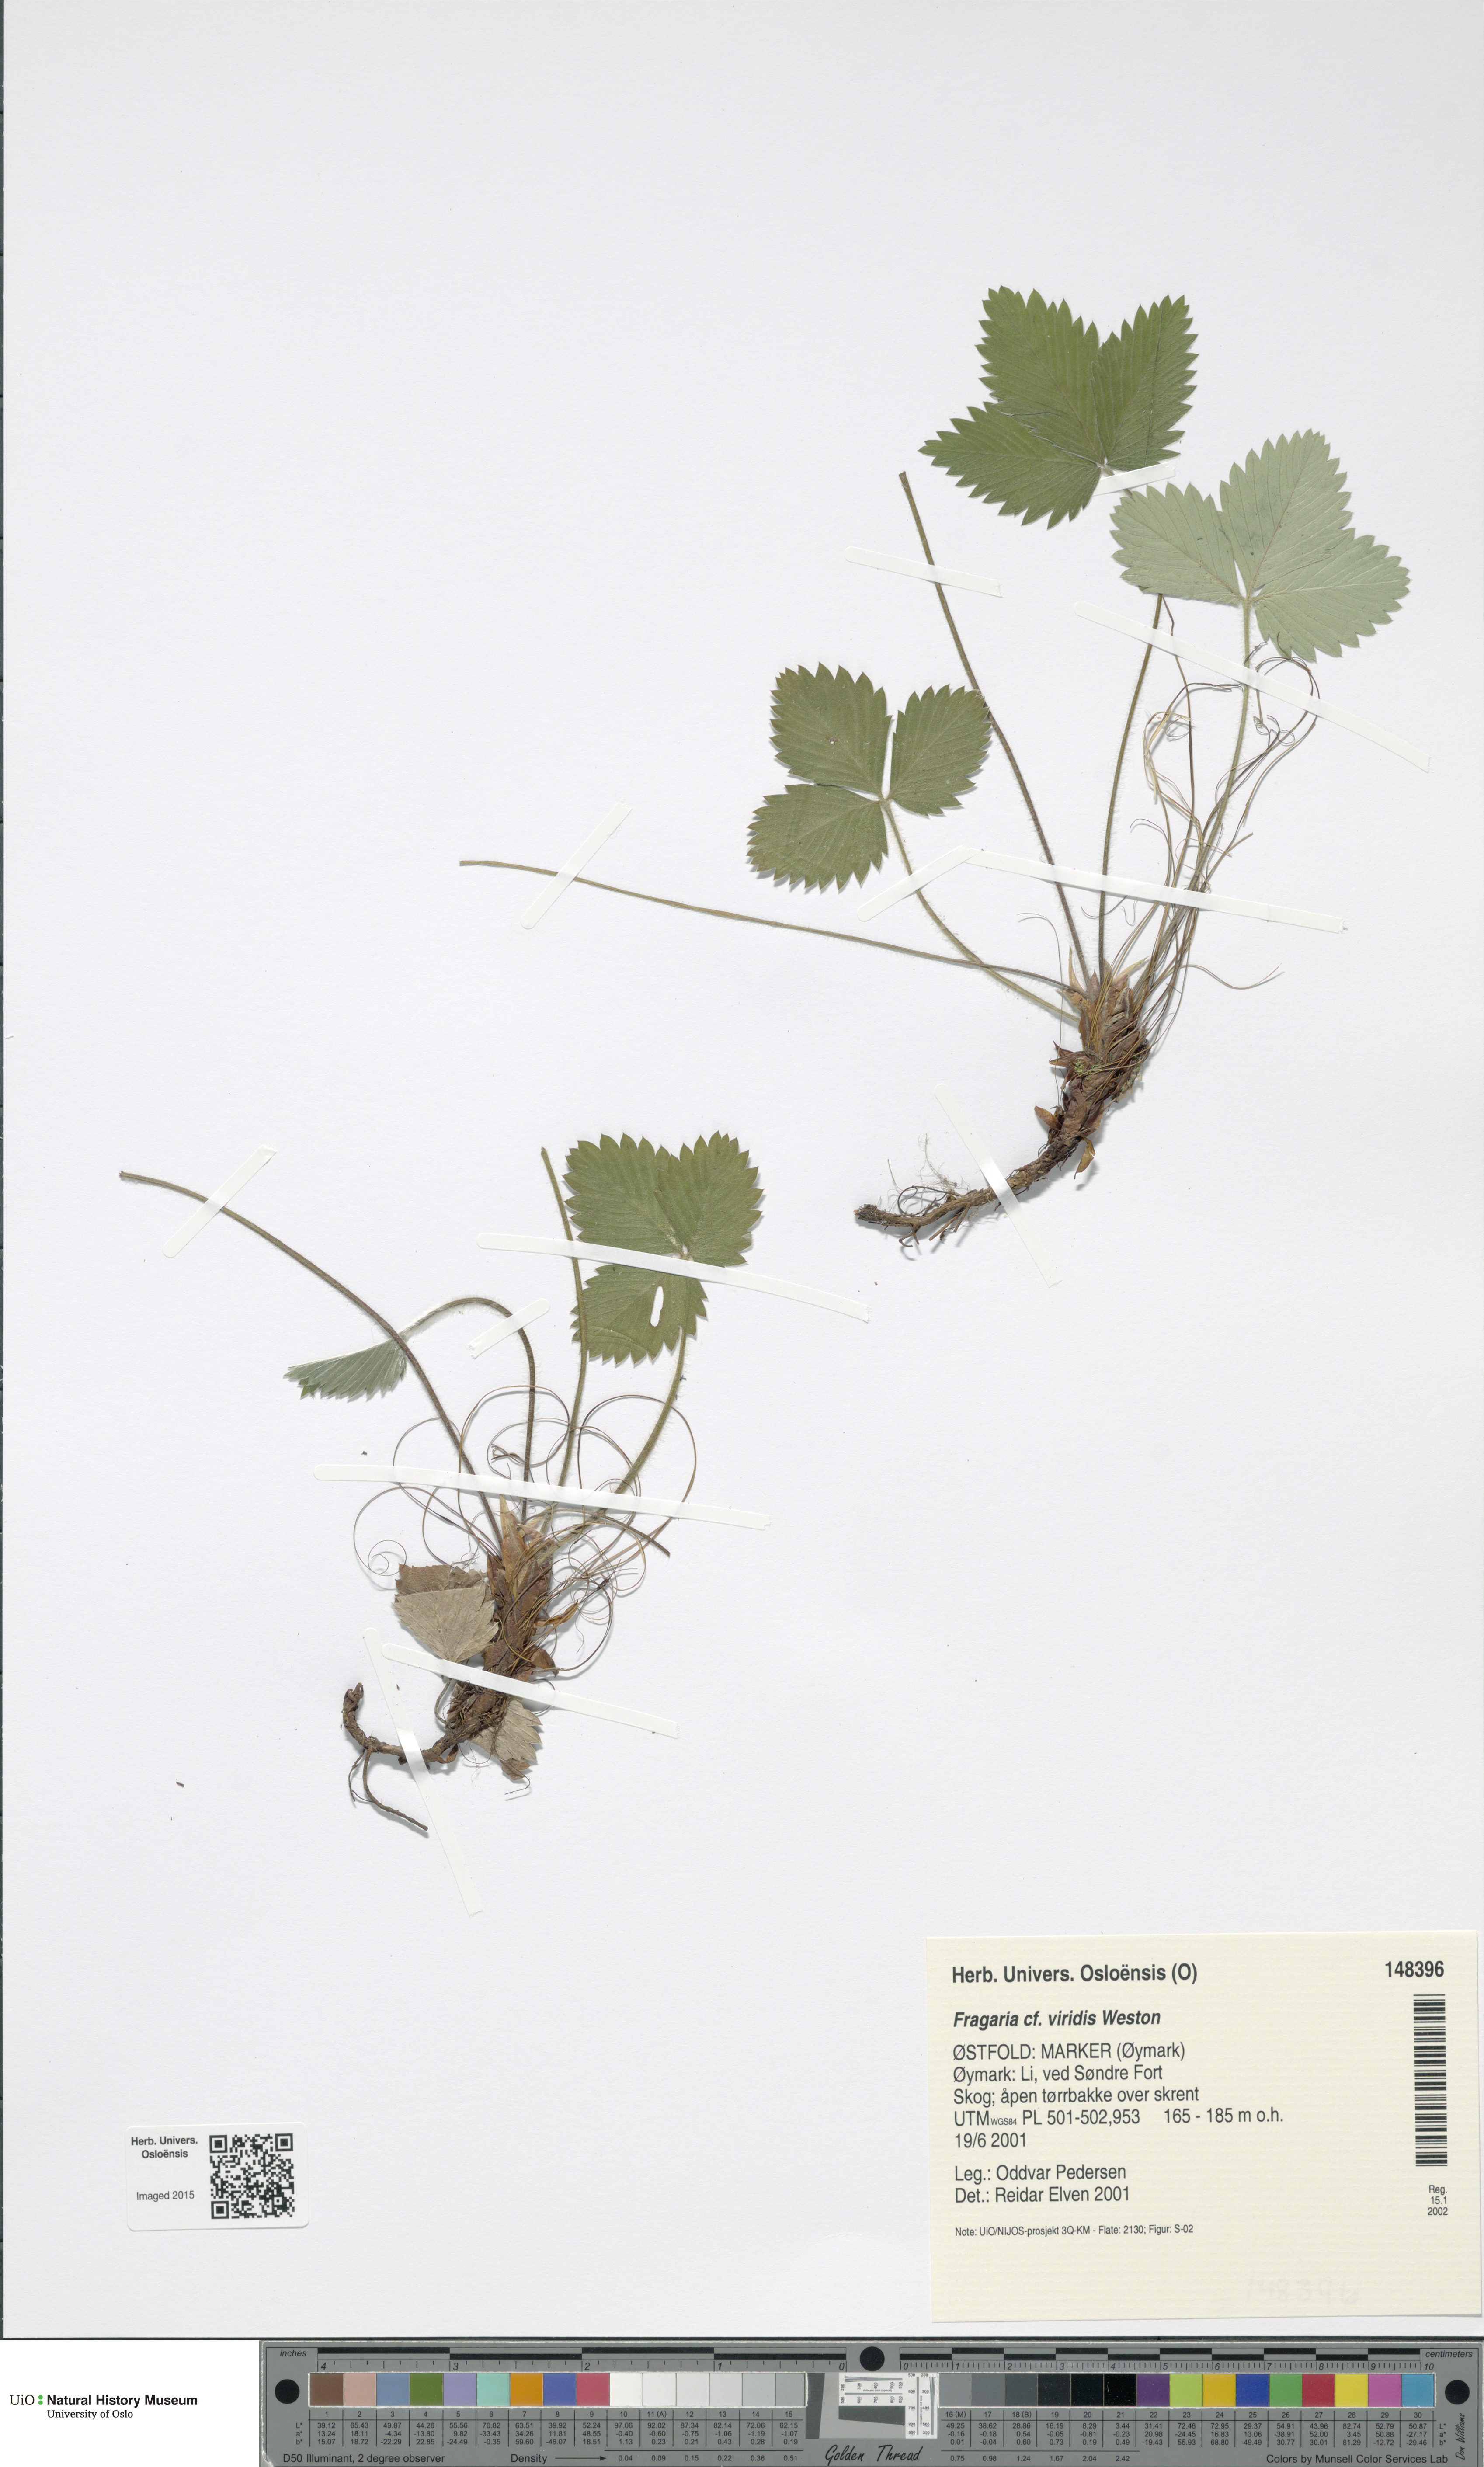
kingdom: Plantae
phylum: Tracheophyta
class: Magnoliopsida
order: Rosales
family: Rosaceae
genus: Fragaria
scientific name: Fragaria vesca
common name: Wild strawberry
